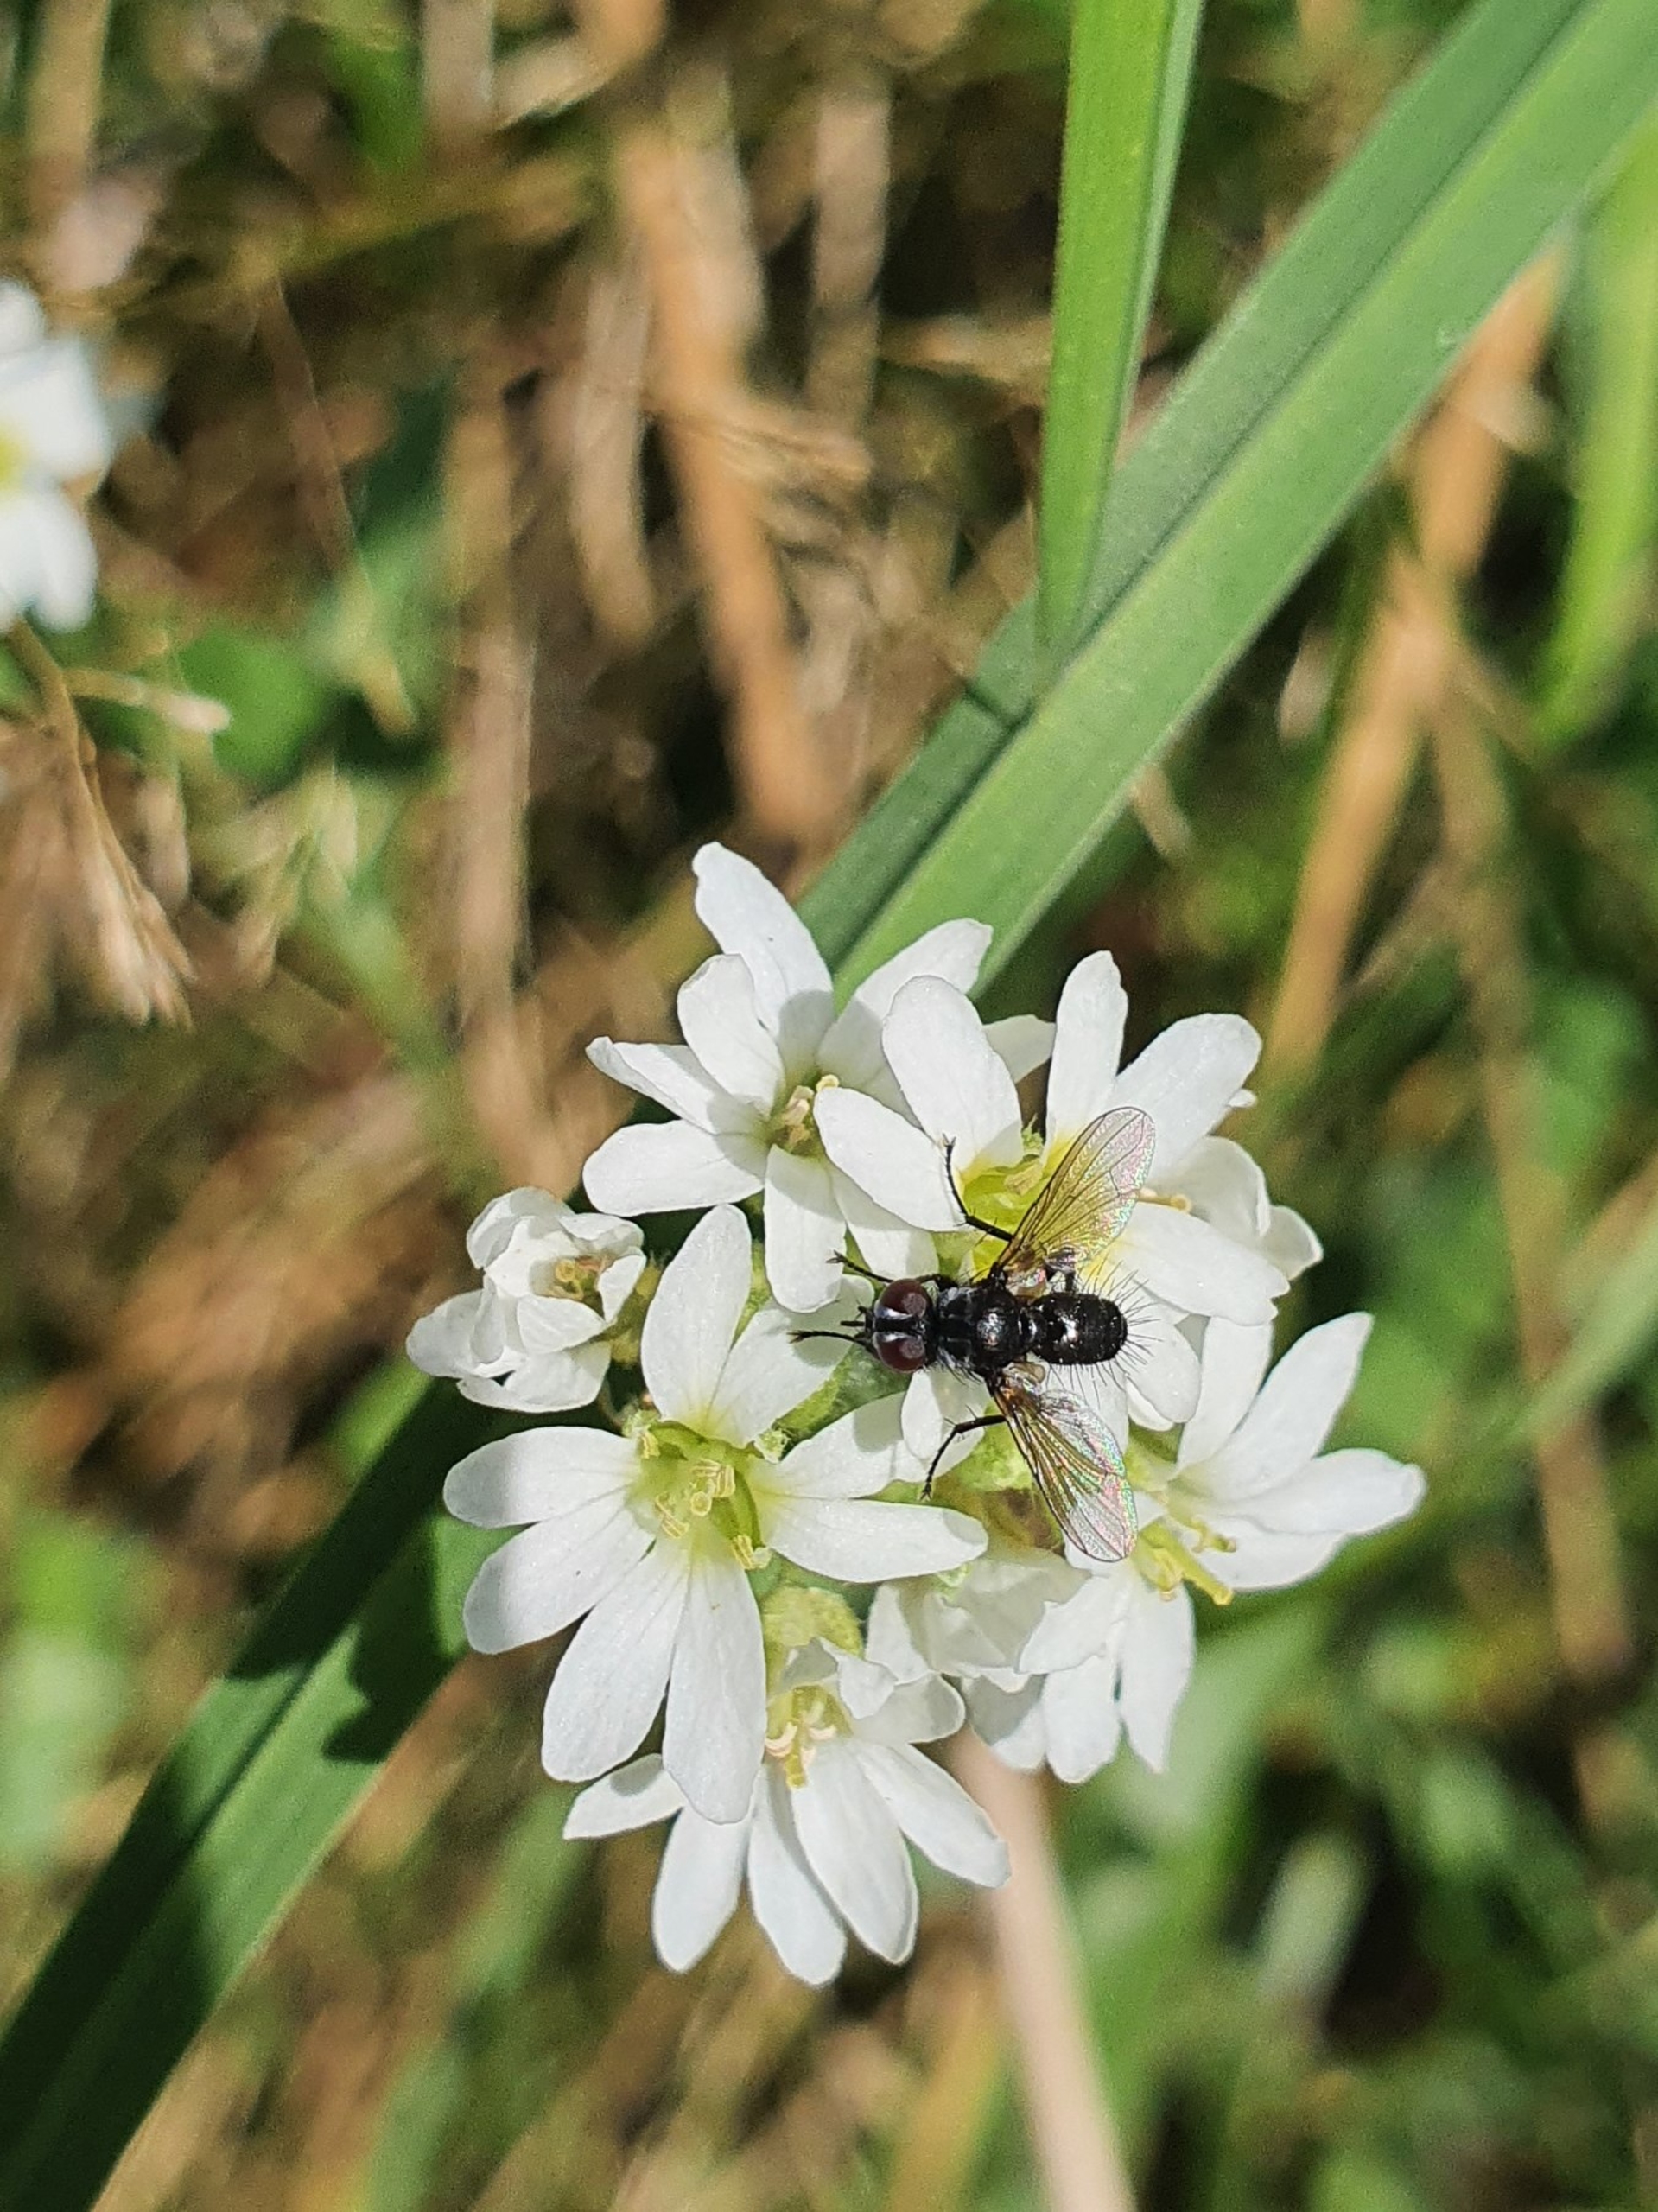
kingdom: Plantae
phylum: Tracheophyta
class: Magnoliopsida
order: Brassicales
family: Brassicaceae
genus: Berteroa
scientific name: Berteroa incana
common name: Kløvplade
